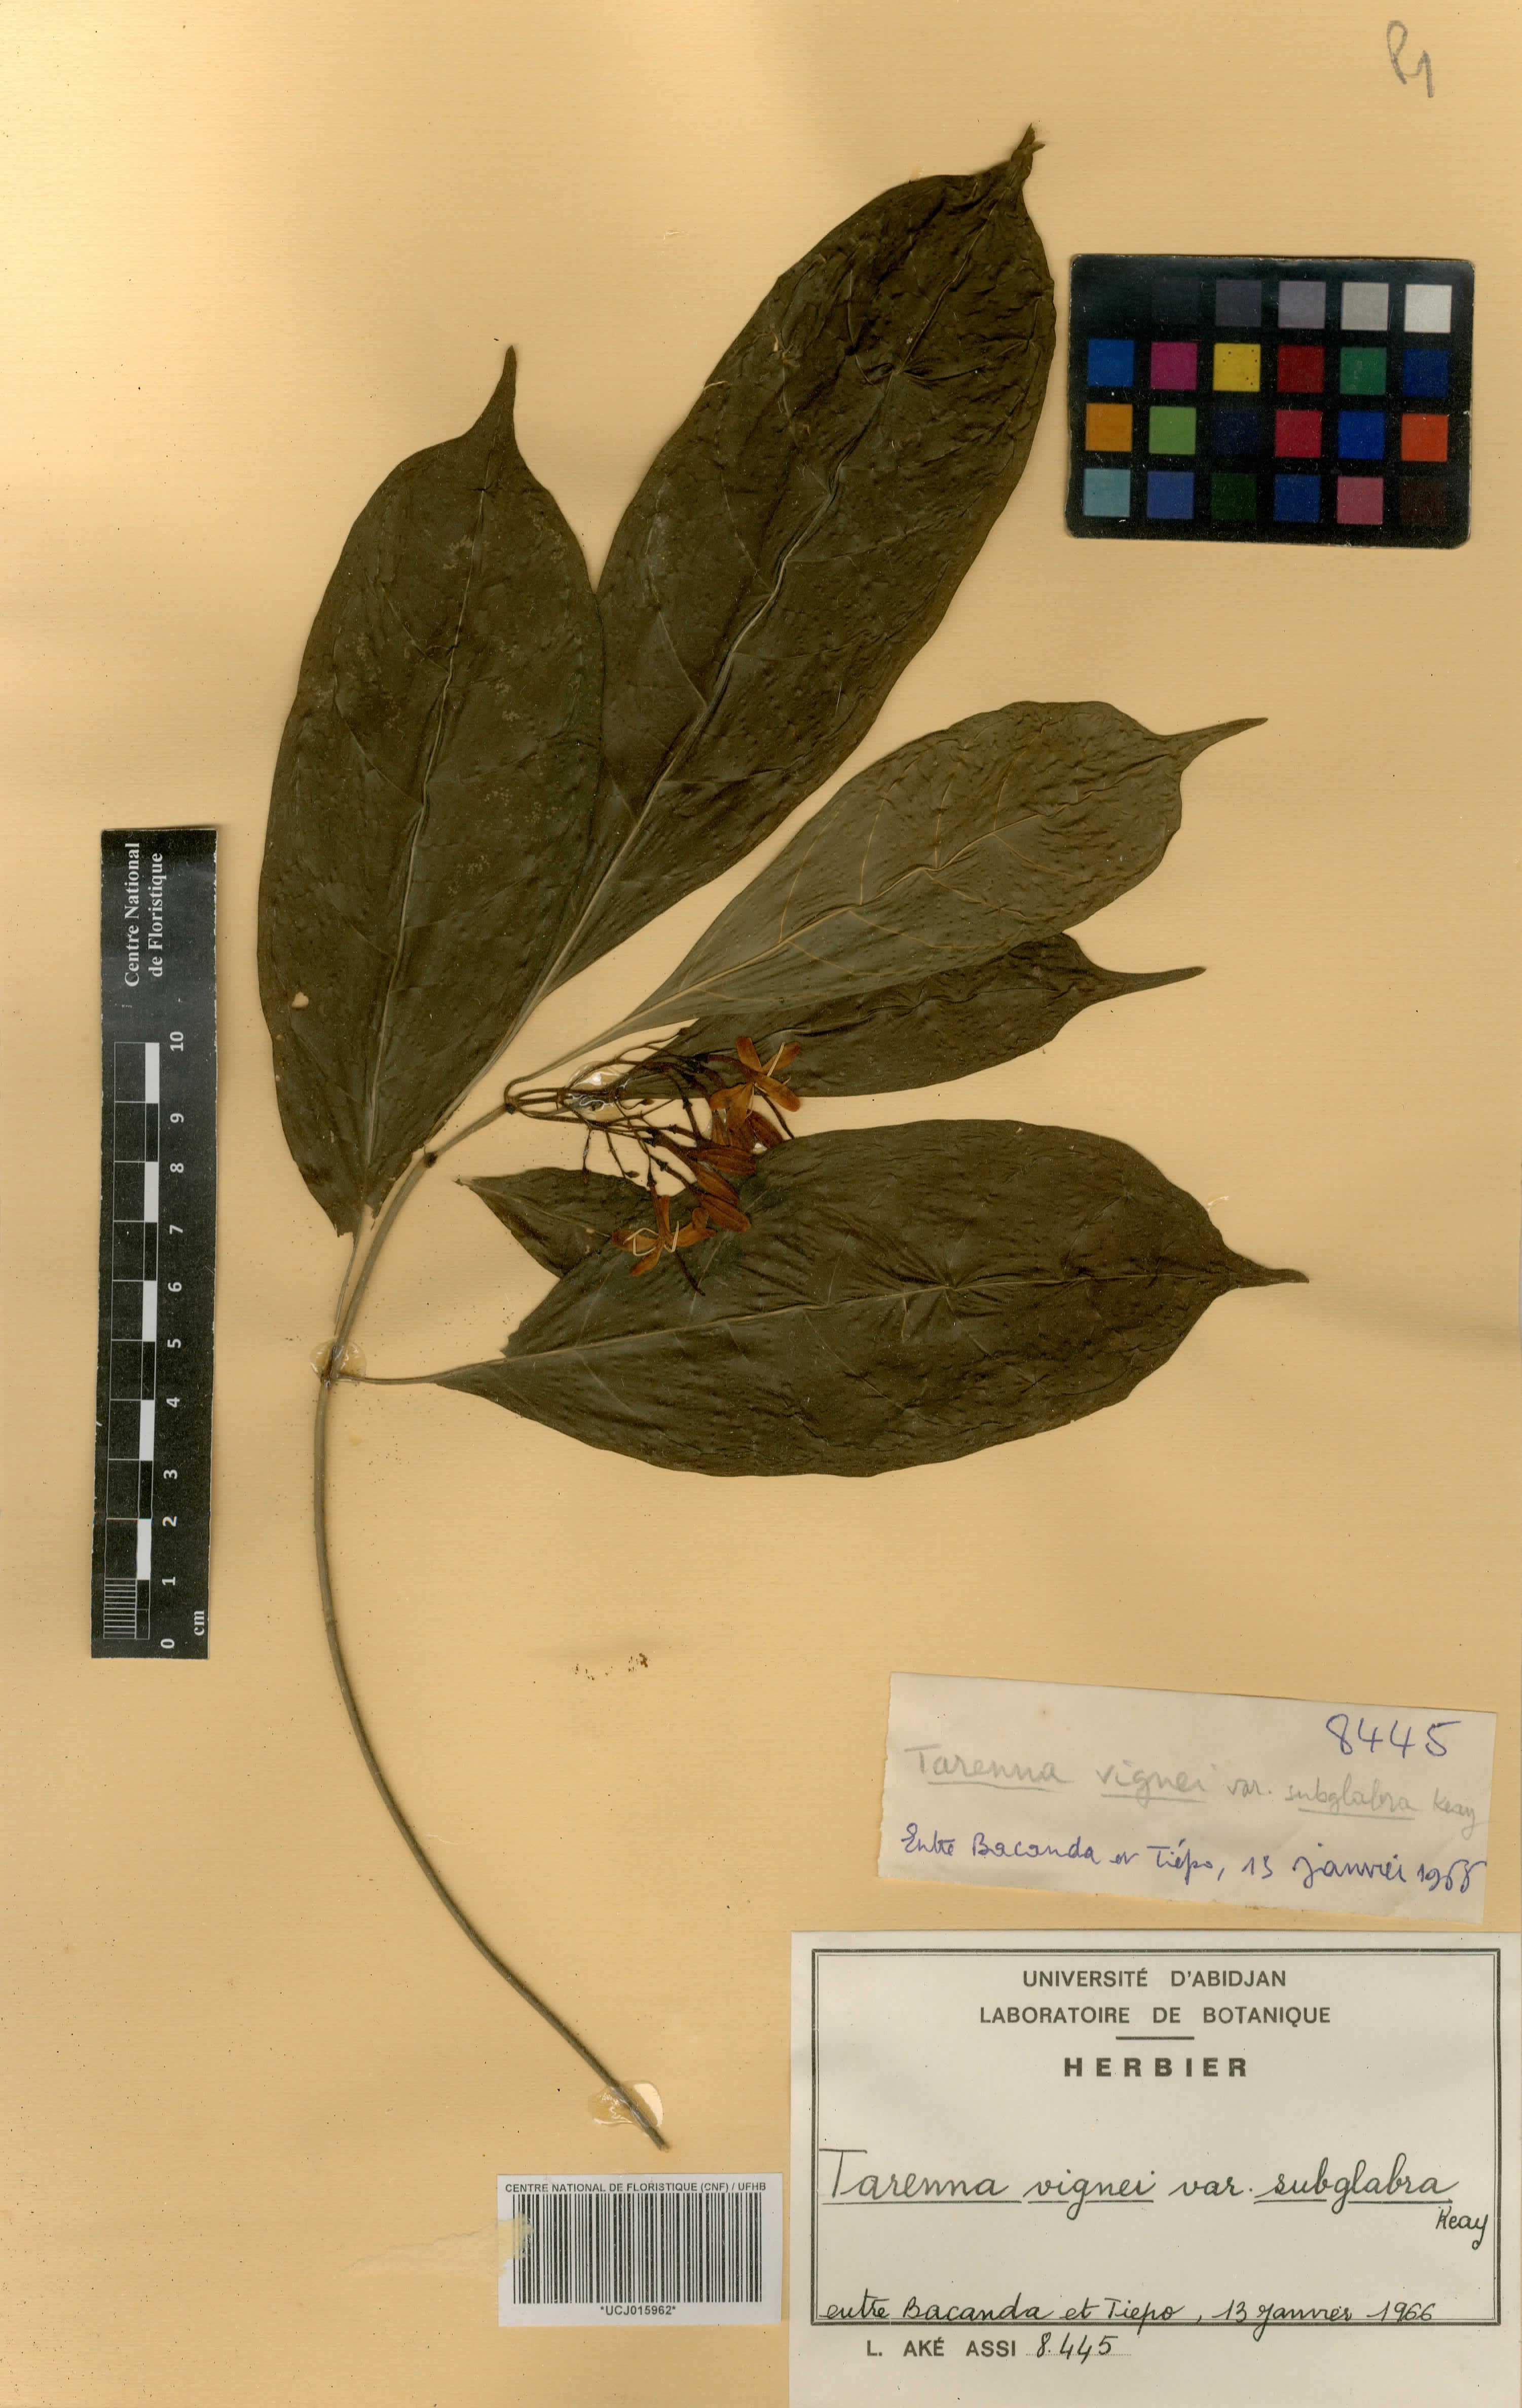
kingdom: Plantae
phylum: Tracheophyta
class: Magnoliopsida
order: Gentianales
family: Rubiaceae
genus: Tarenna
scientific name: Tarenna vignei
